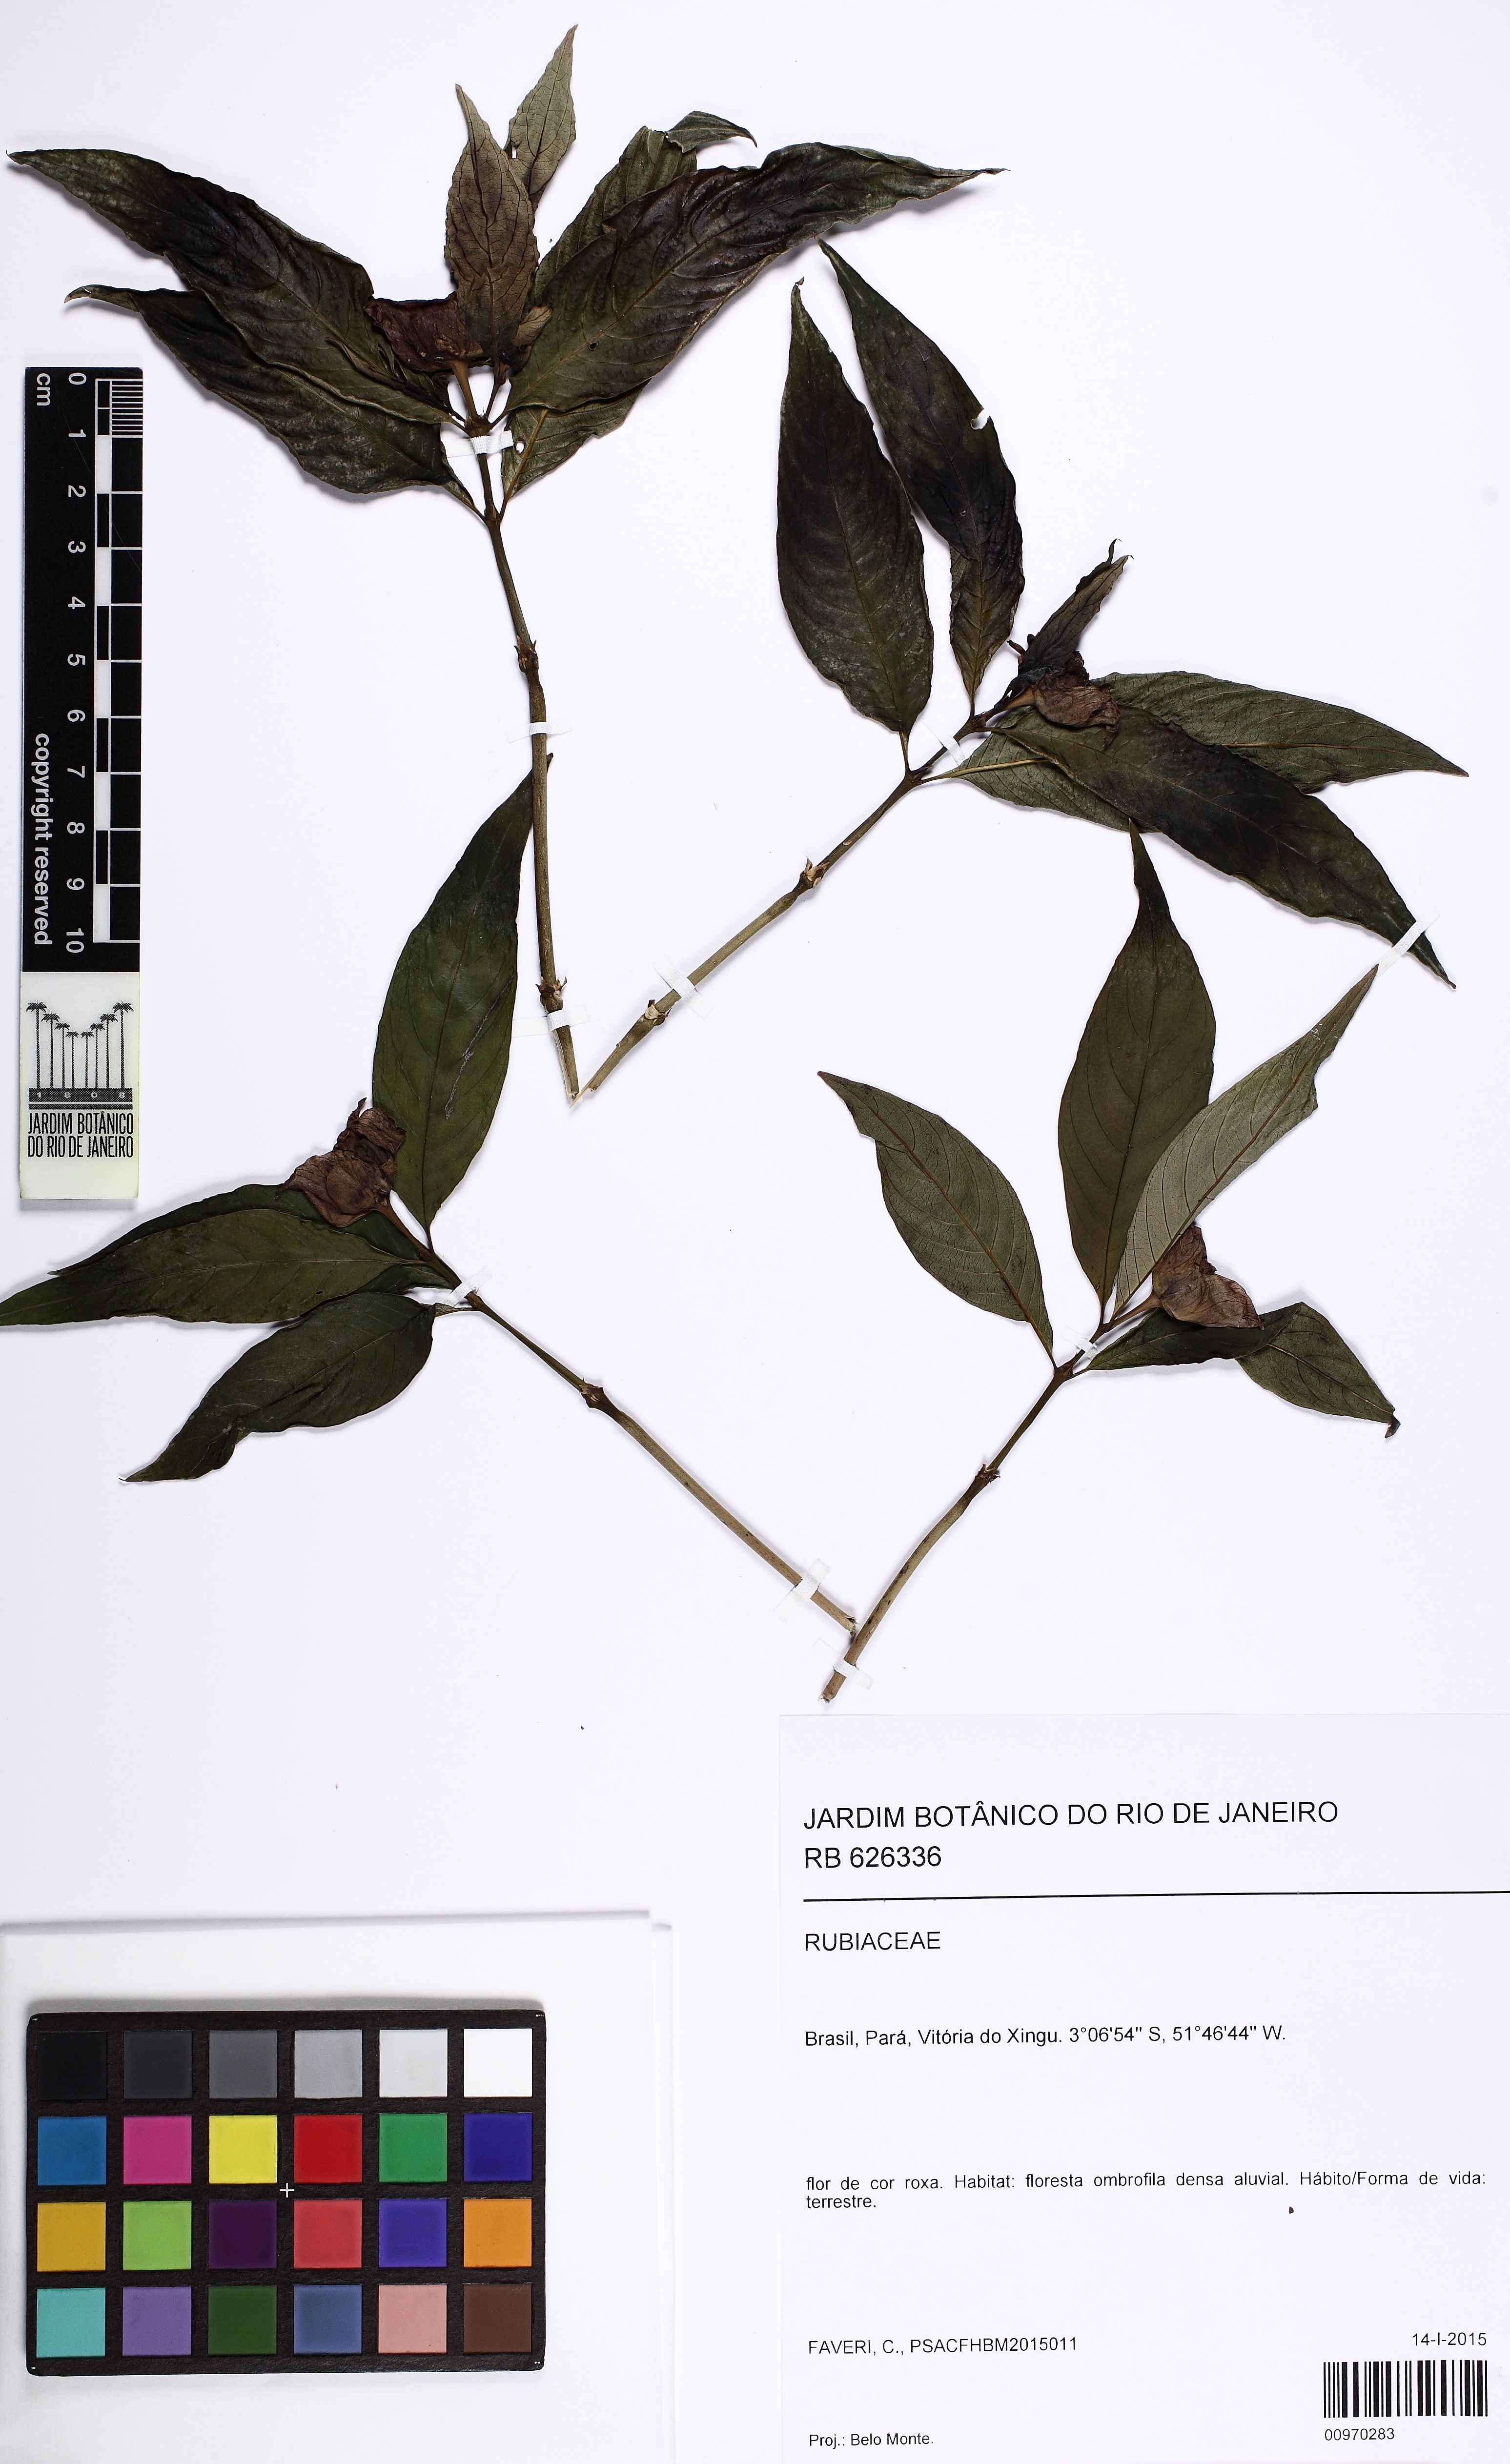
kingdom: Plantae
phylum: Tracheophyta
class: Magnoliopsida
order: Gentianales
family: Rubiaceae
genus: Palicourea
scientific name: Palicourea colorata
